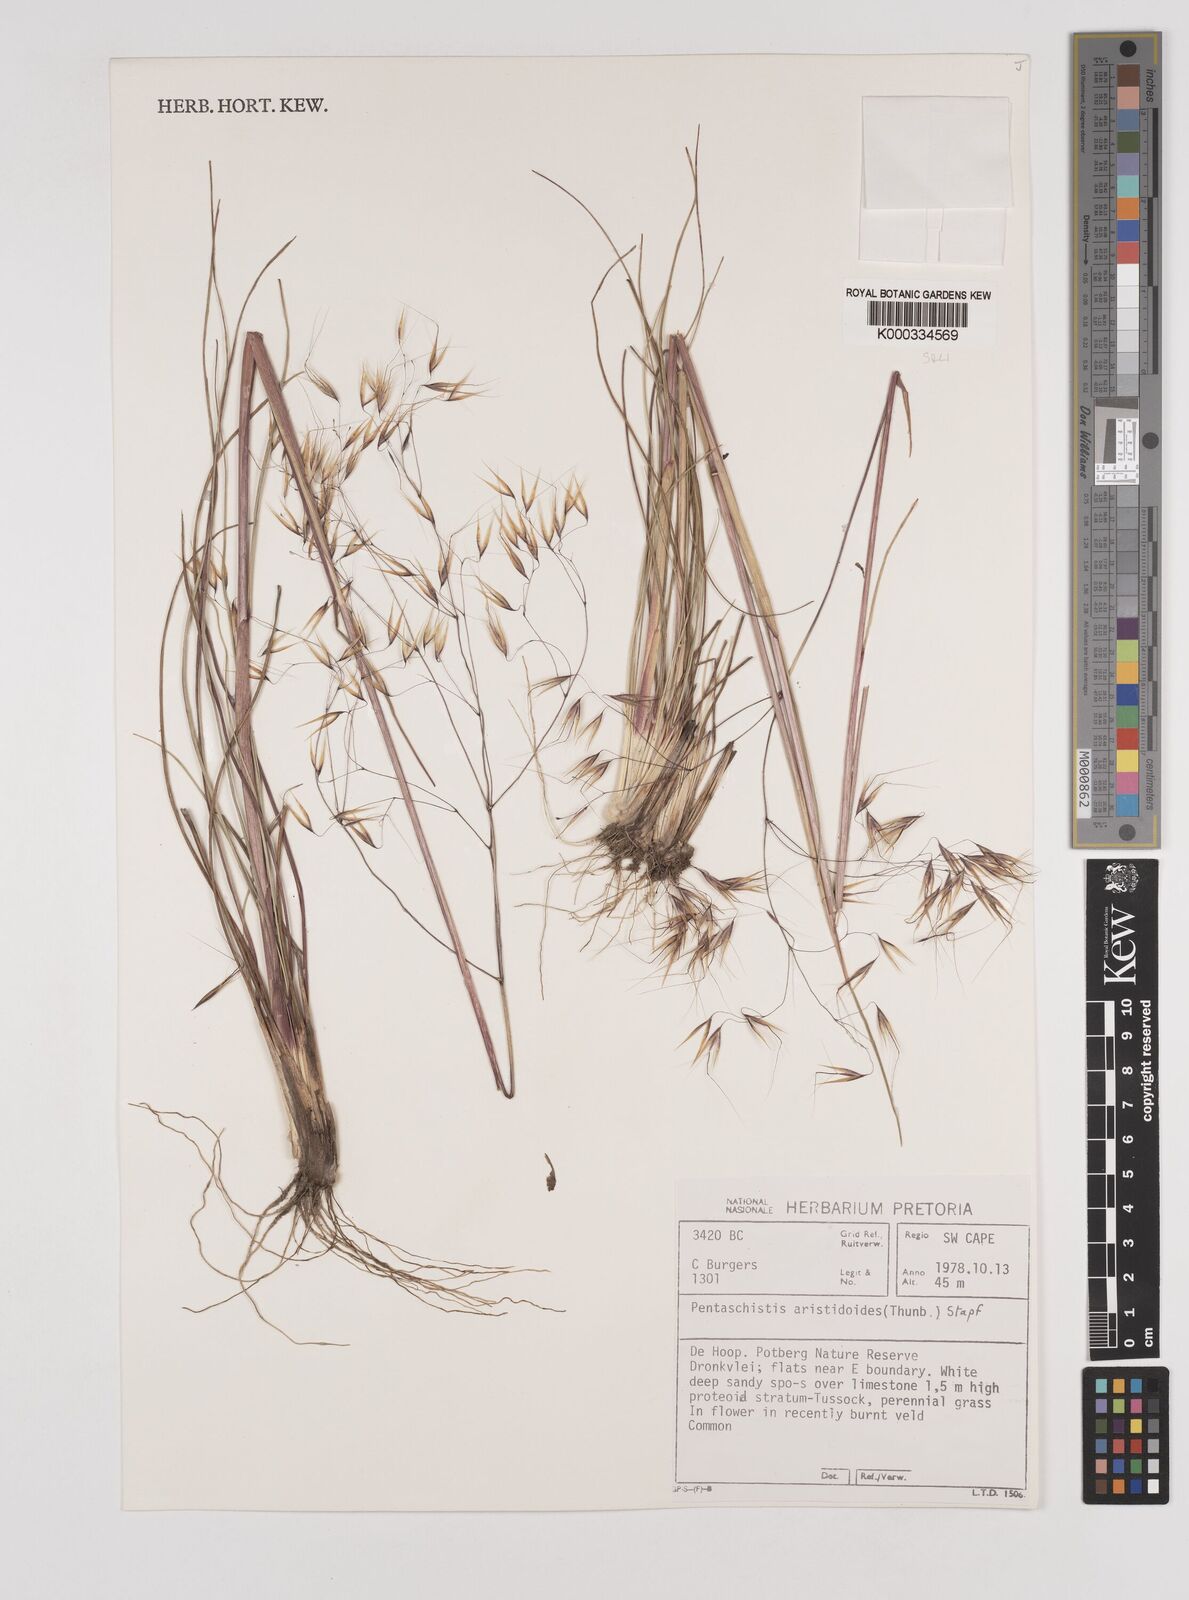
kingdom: Plantae
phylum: Tracheophyta
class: Liliopsida
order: Poales
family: Poaceae
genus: Pentameris
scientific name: Pentameris aristidoides
